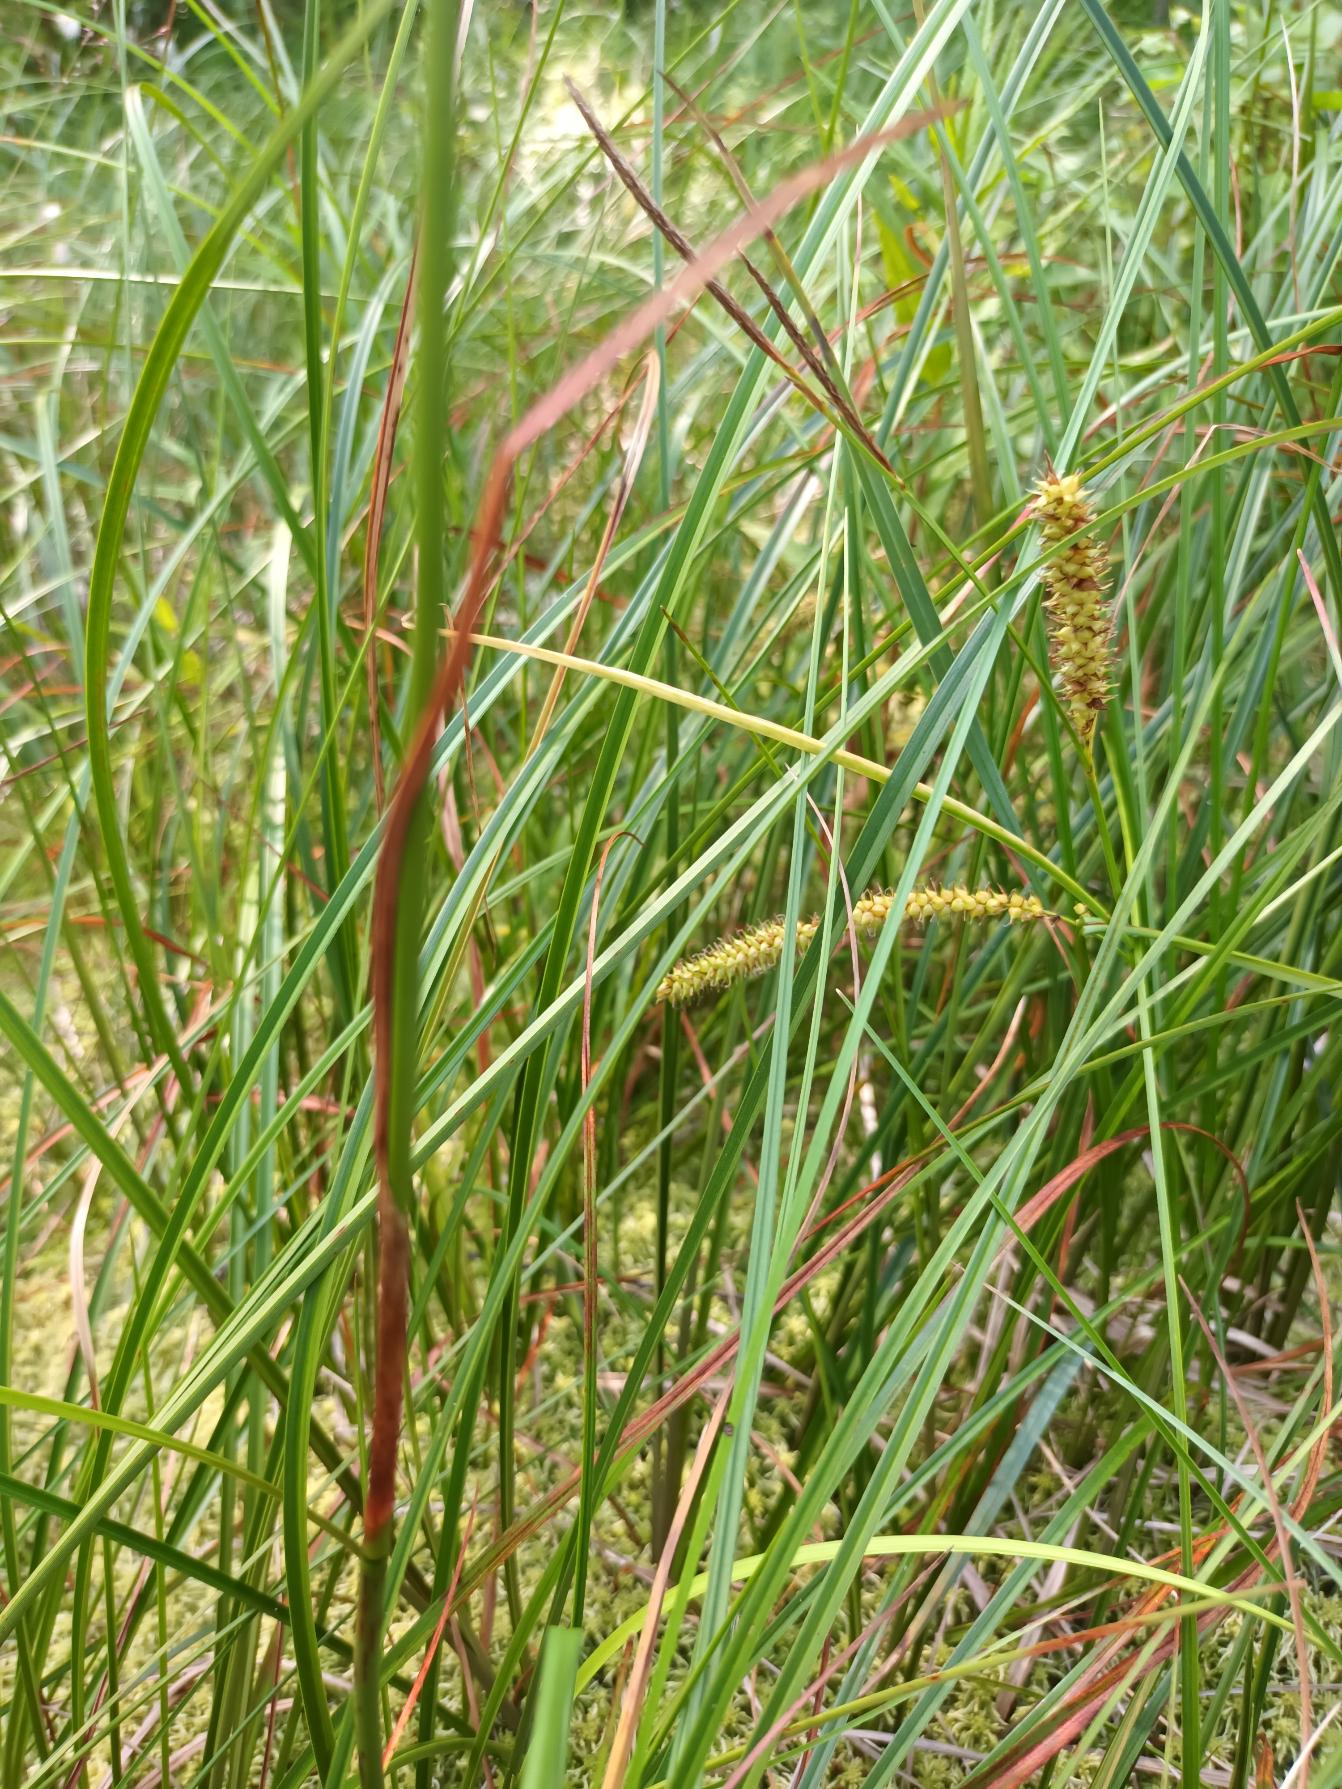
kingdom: Plantae
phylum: Tracheophyta
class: Liliopsida
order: Poales
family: Cyperaceae
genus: Eriophorum
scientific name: Eriophorum angustifolium
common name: Smalbladet kæruld
